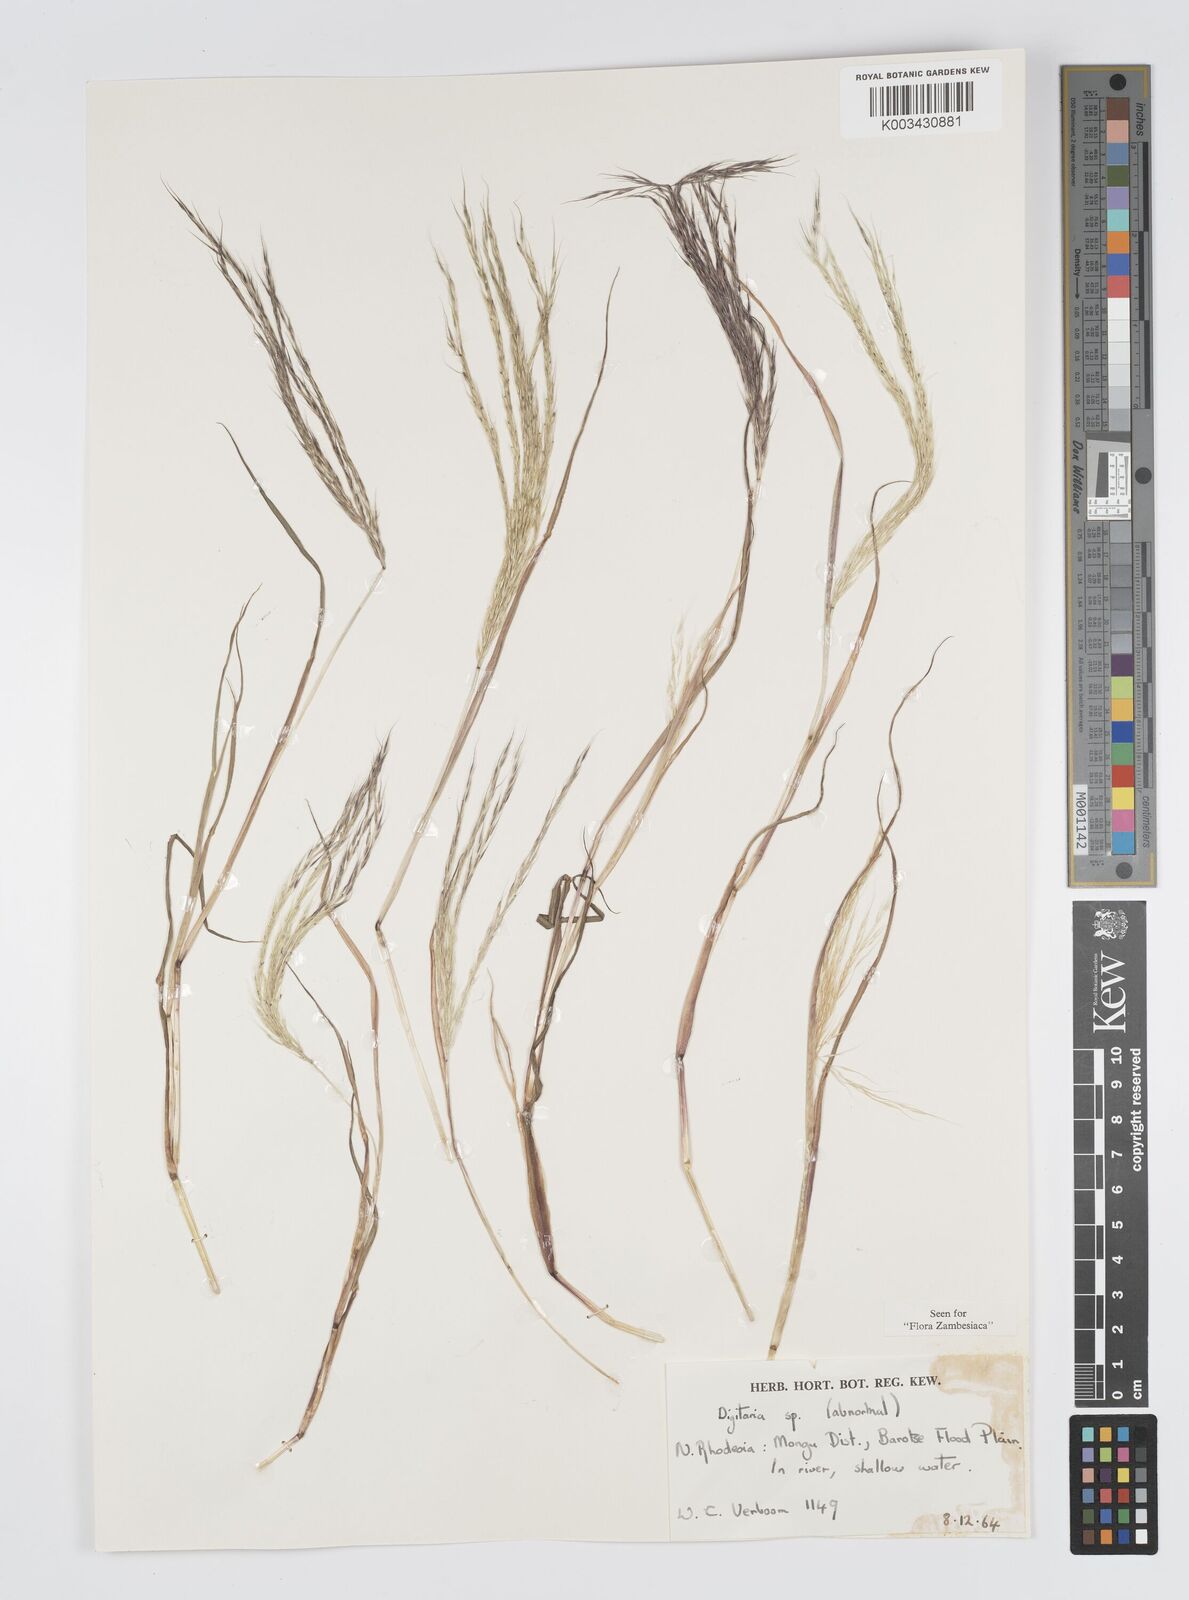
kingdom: Plantae
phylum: Tracheophyta
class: Liliopsida
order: Poales
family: Poaceae
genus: Digitaria
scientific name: Digitaria remotigluma
